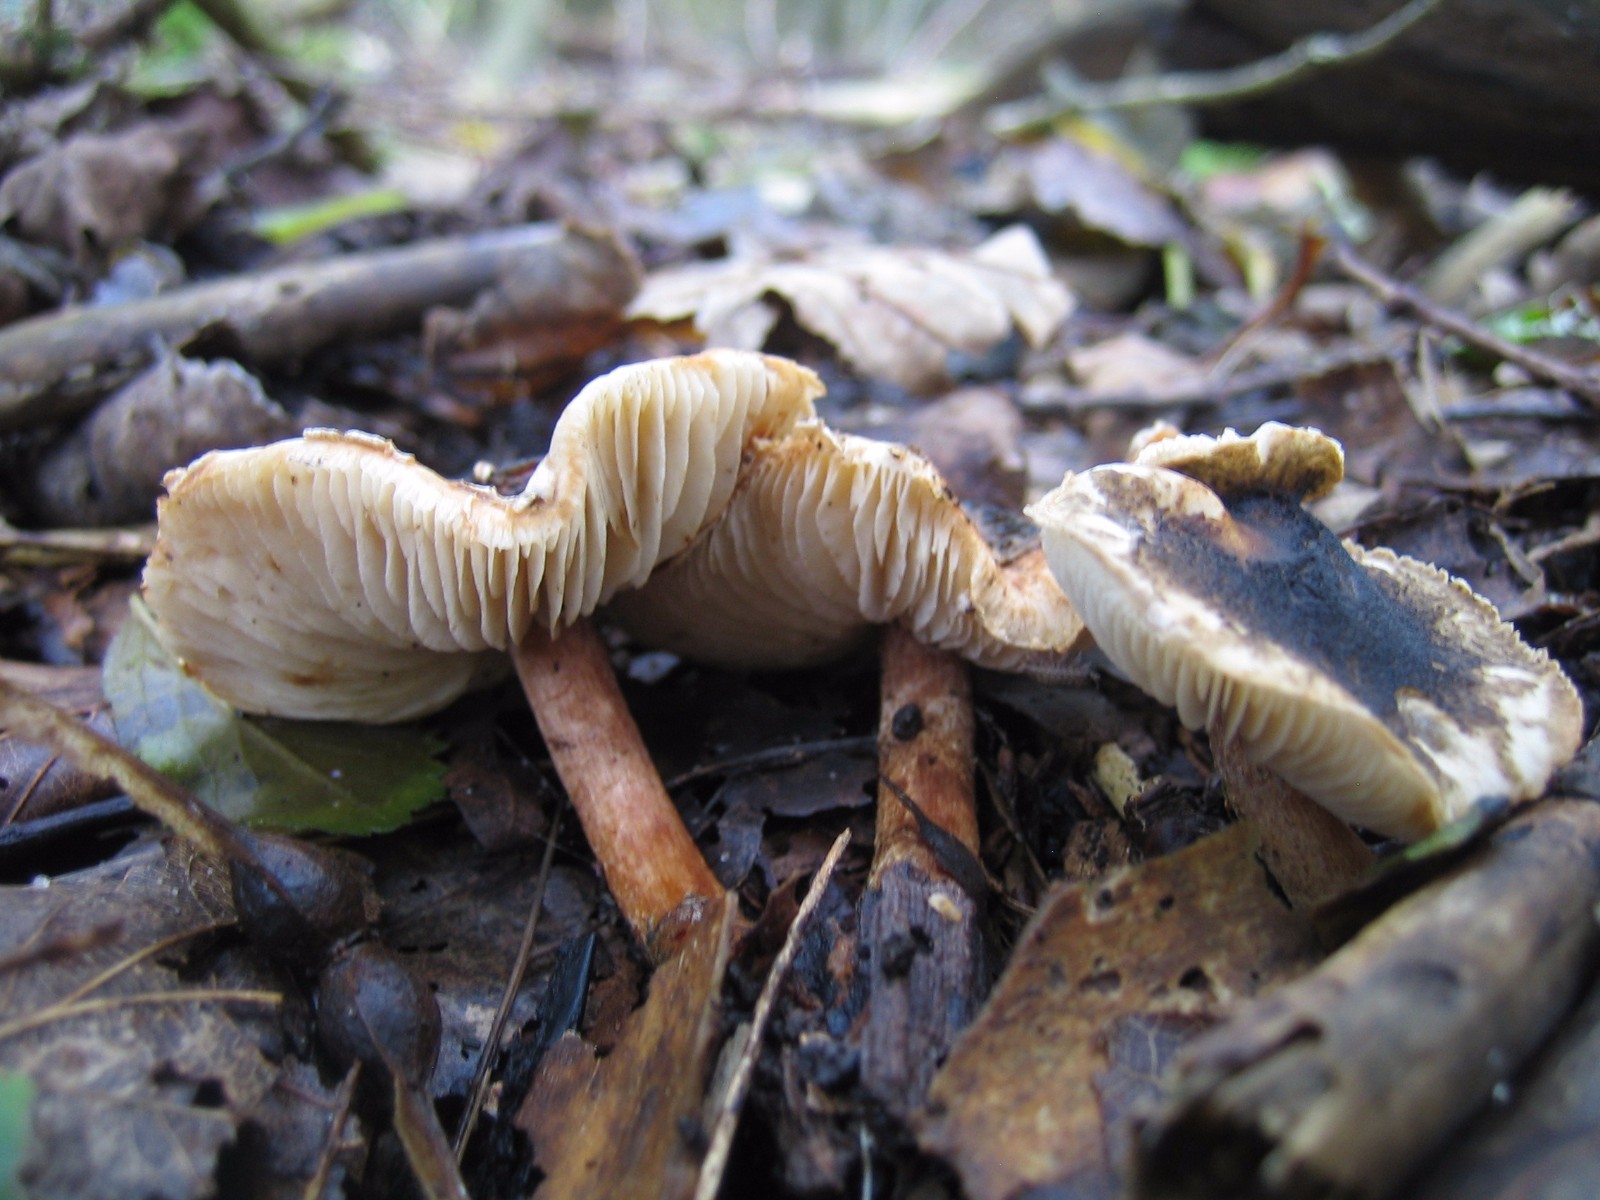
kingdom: Fungi
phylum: Basidiomycota
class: Agaricomycetes
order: Agaricales
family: Agaricaceae
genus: Lepiota
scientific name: Lepiota grangei
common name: grønskællet parasolhat
